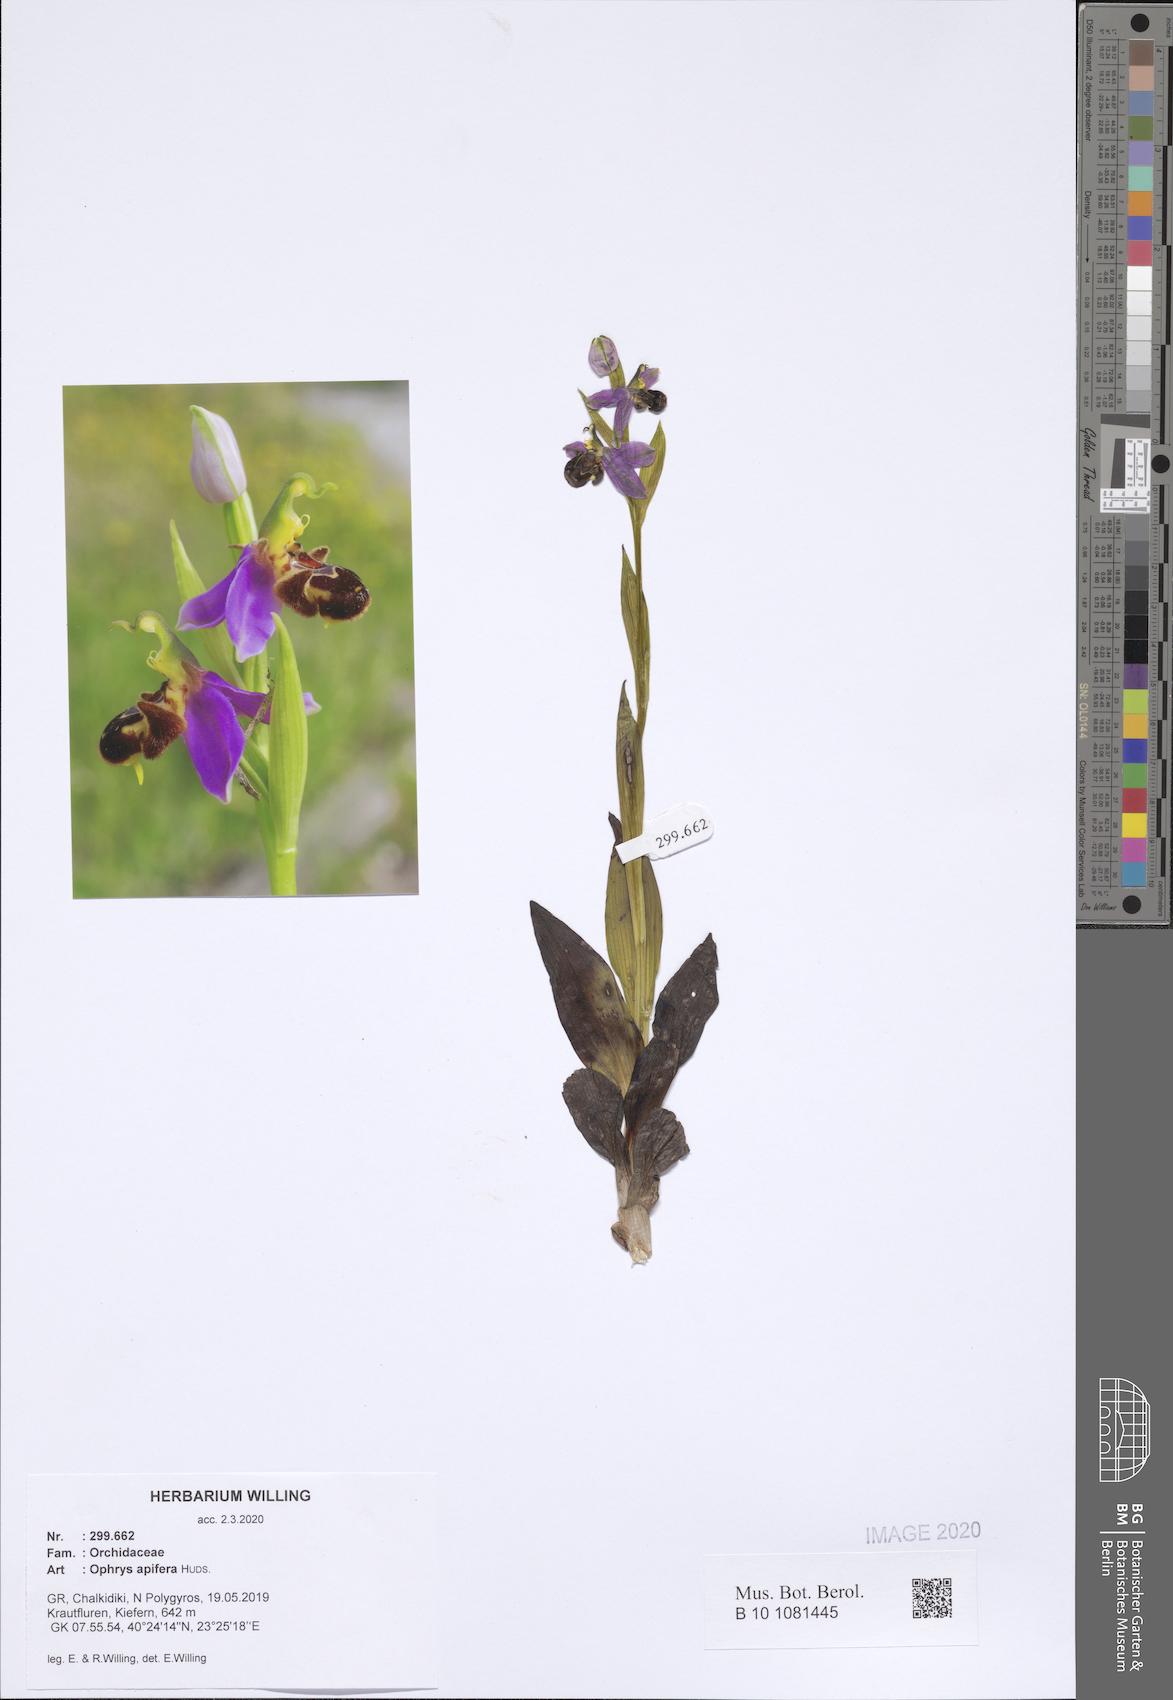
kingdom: Plantae
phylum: Tracheophyta
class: Liliopsida
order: Asparagales
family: Orchidaceae
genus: Ophrys
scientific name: Ophrys apifera
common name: Bee orchid
